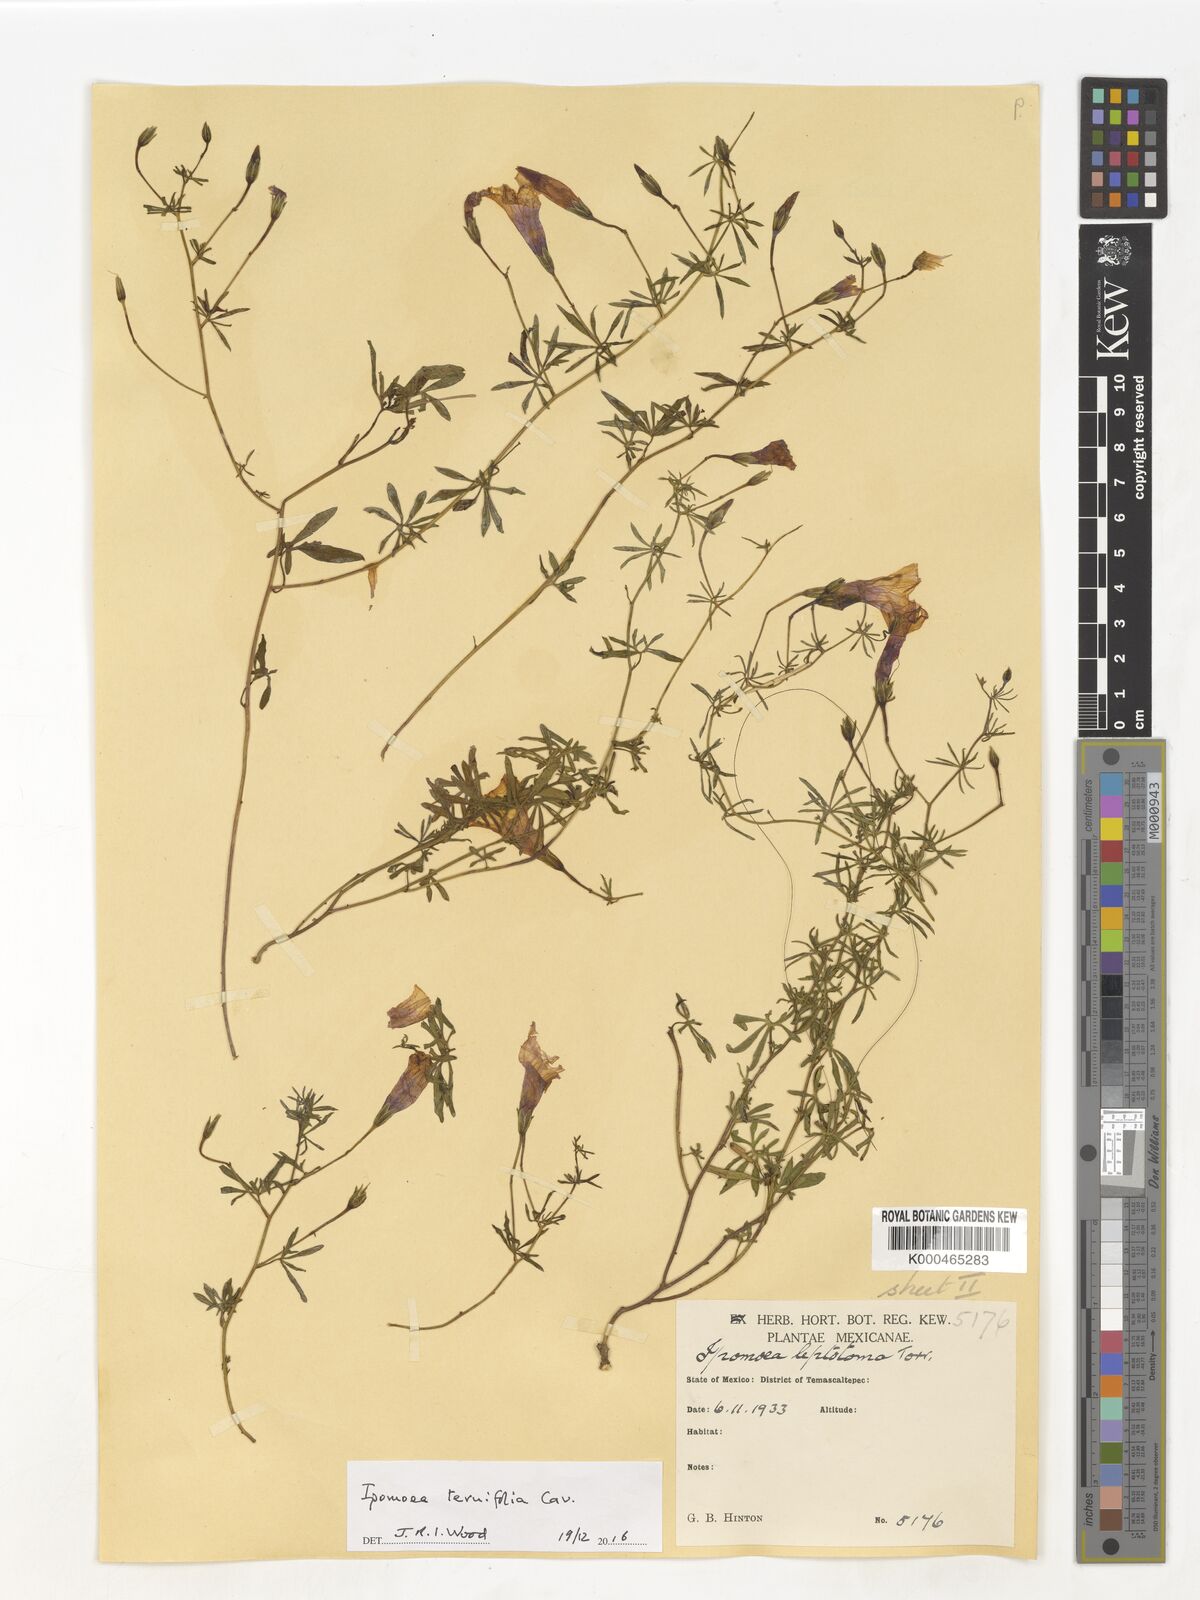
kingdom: Plantae
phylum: Tracheophyta
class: Magnoliopsida
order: Solanales
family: Convolvulaceae
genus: Ipomoea
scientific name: Ipomoea ternifolia
